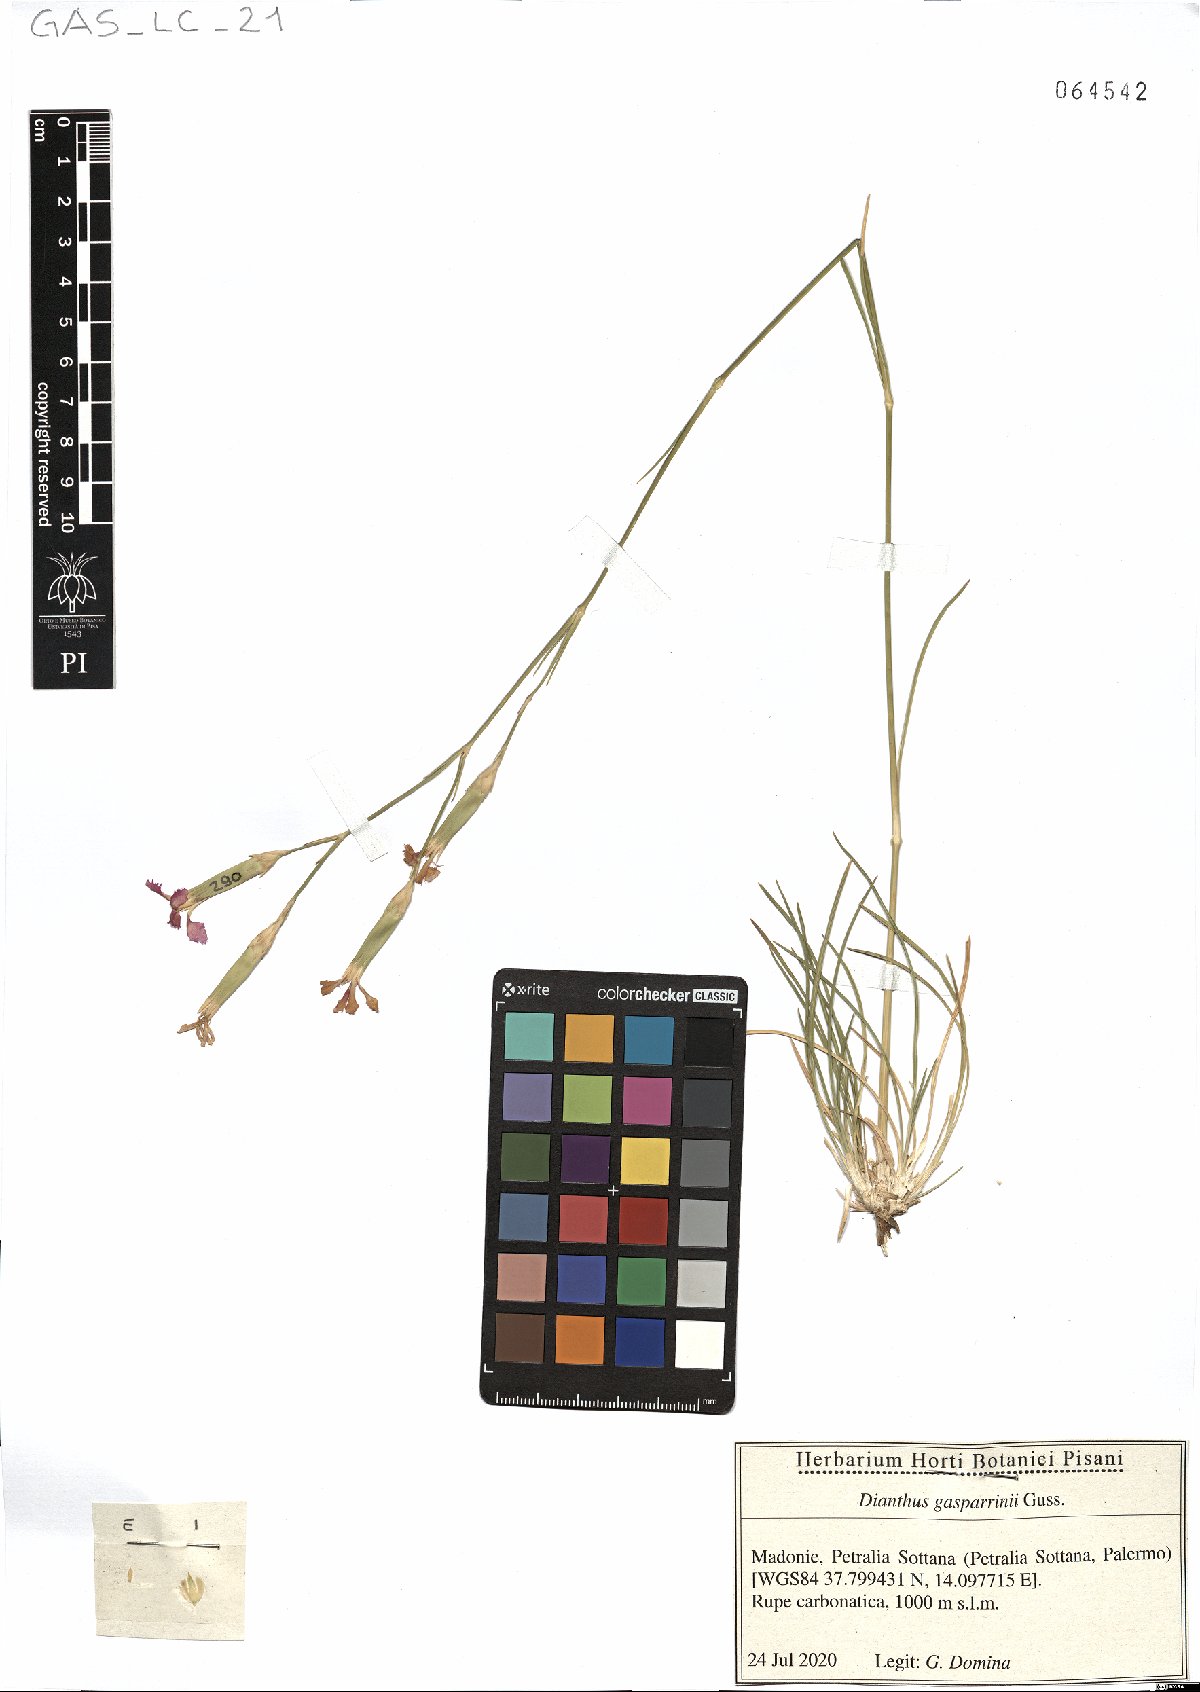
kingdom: Plantae
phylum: Tracheophyta
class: Magnoliopsida
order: Caryophyllales
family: Caryophyllaceae
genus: Dianthus
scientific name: Dianthus gasparrinii
